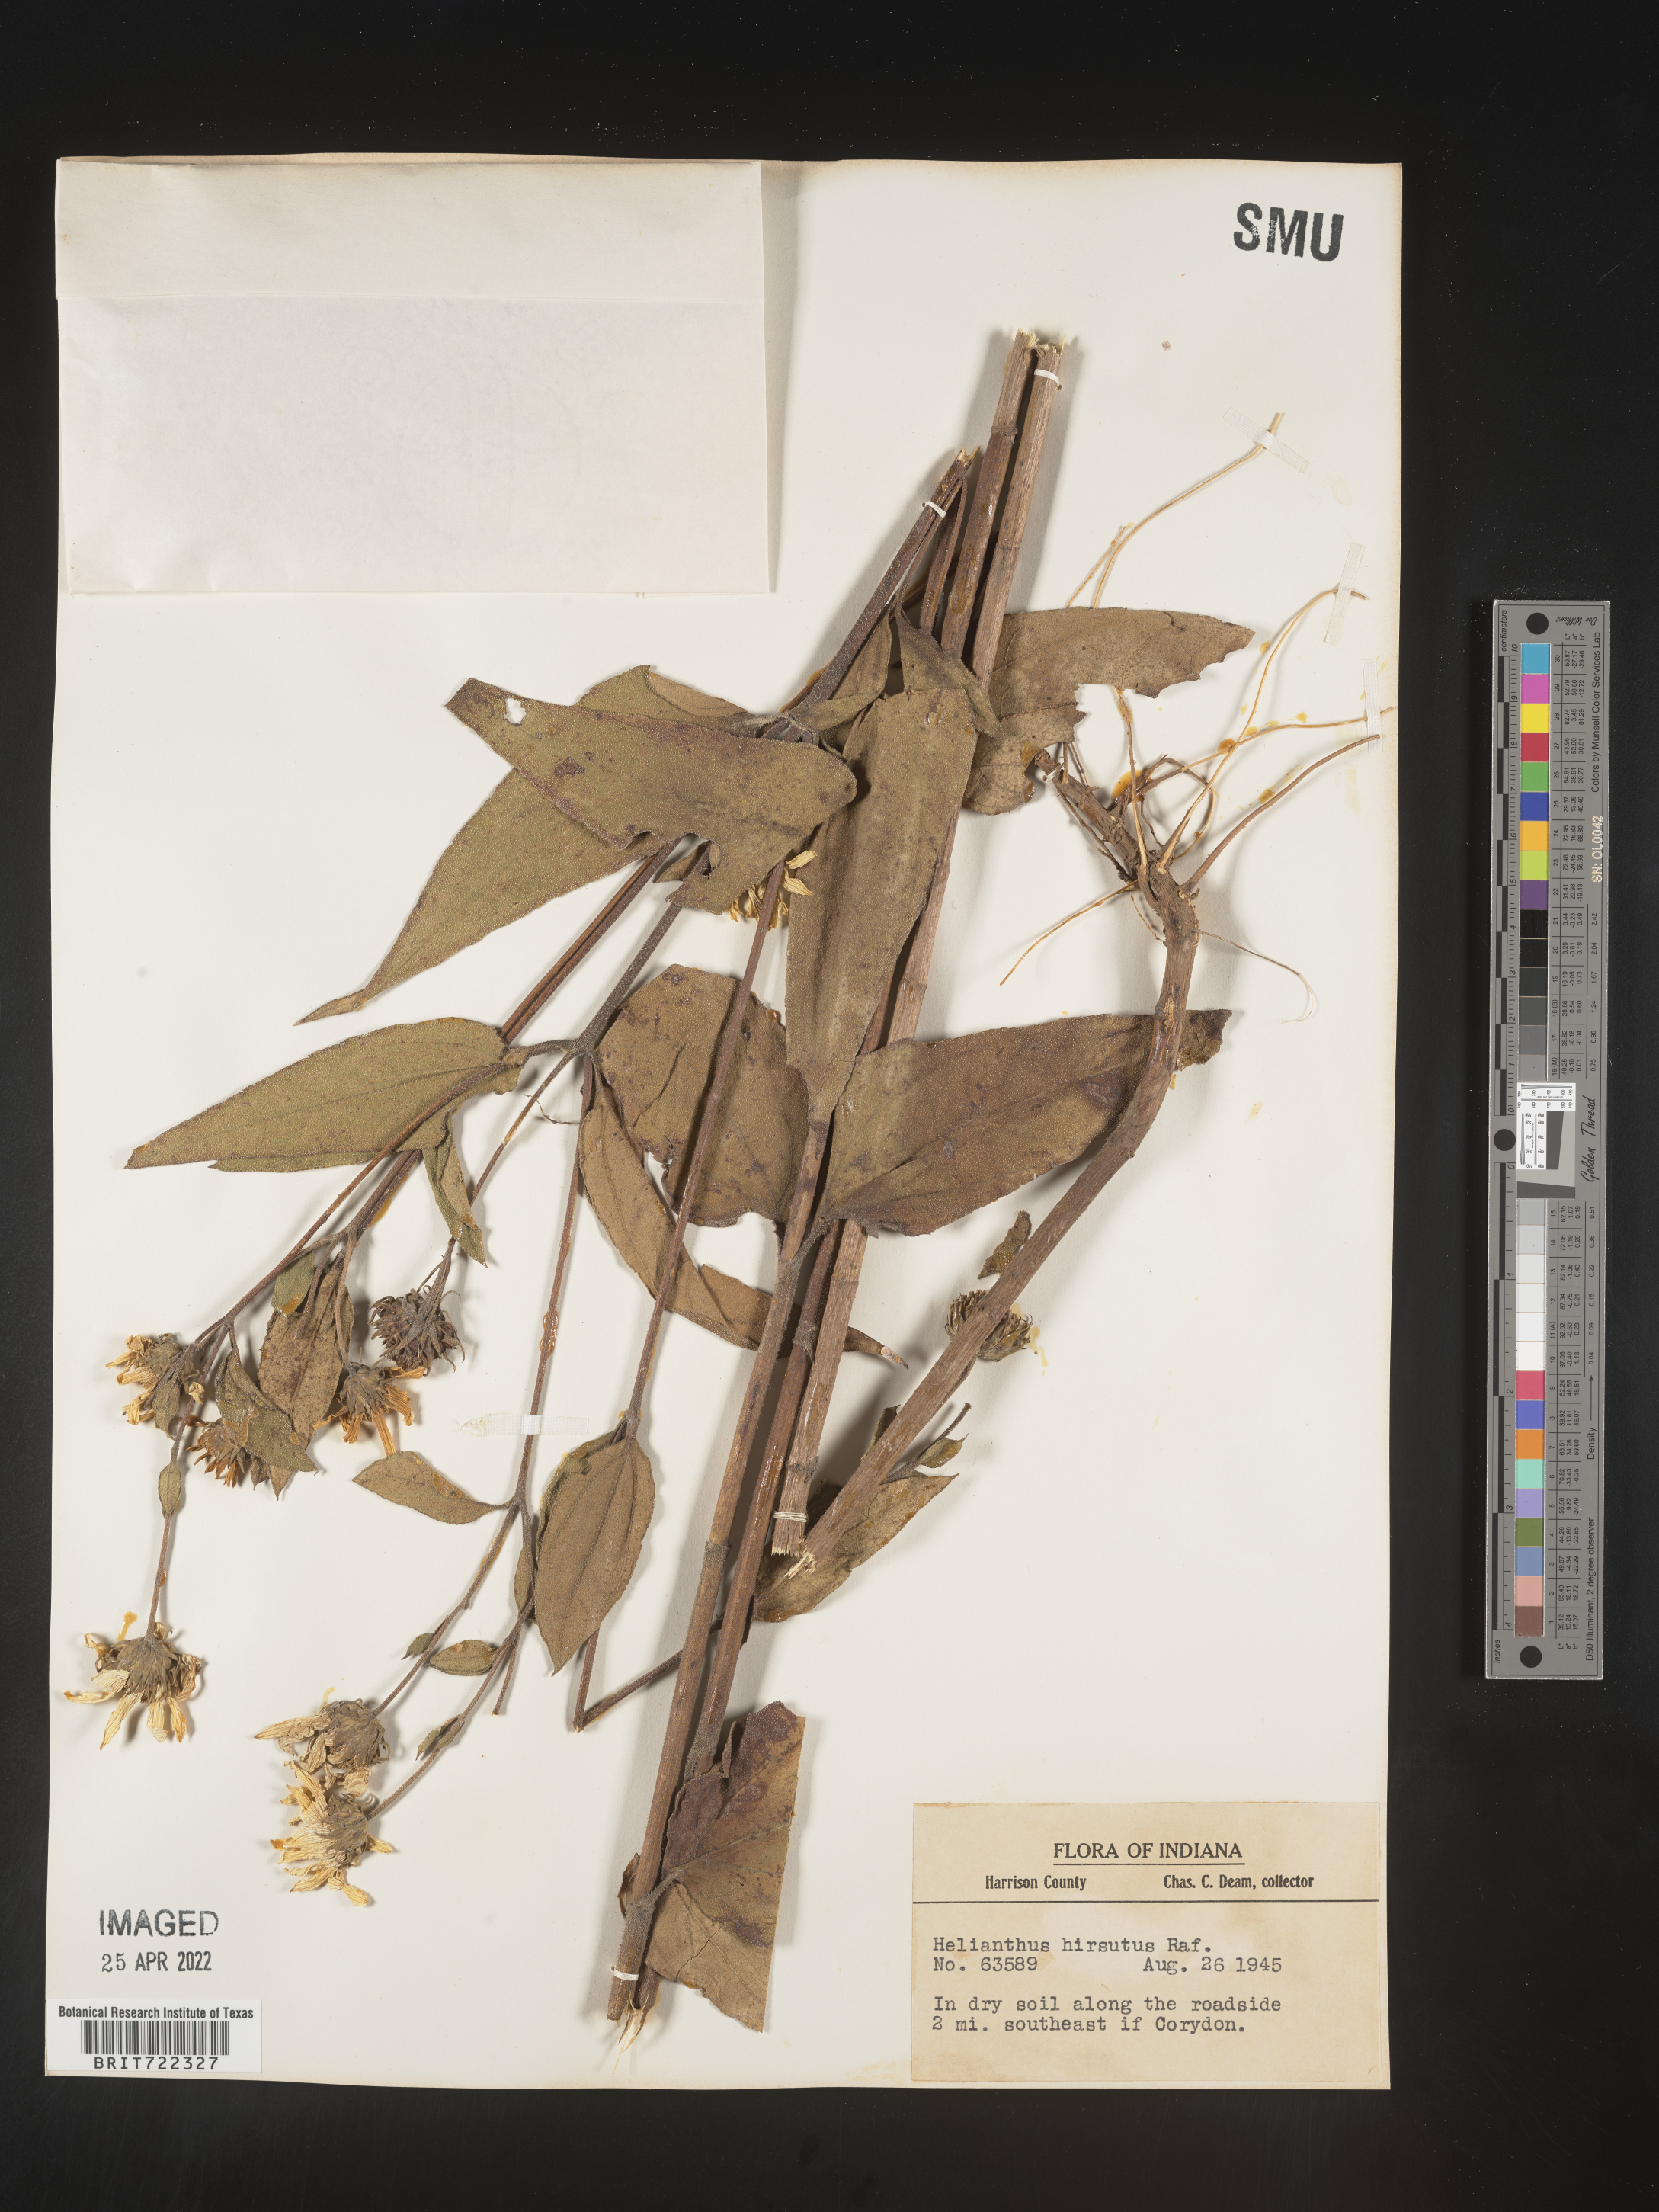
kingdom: Plantae
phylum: Tracheophyta
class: Magnoliopsida
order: Asterales
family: Asteraceae
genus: Helianthus
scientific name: Helianthus hirsutus
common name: Hairy sunflower
